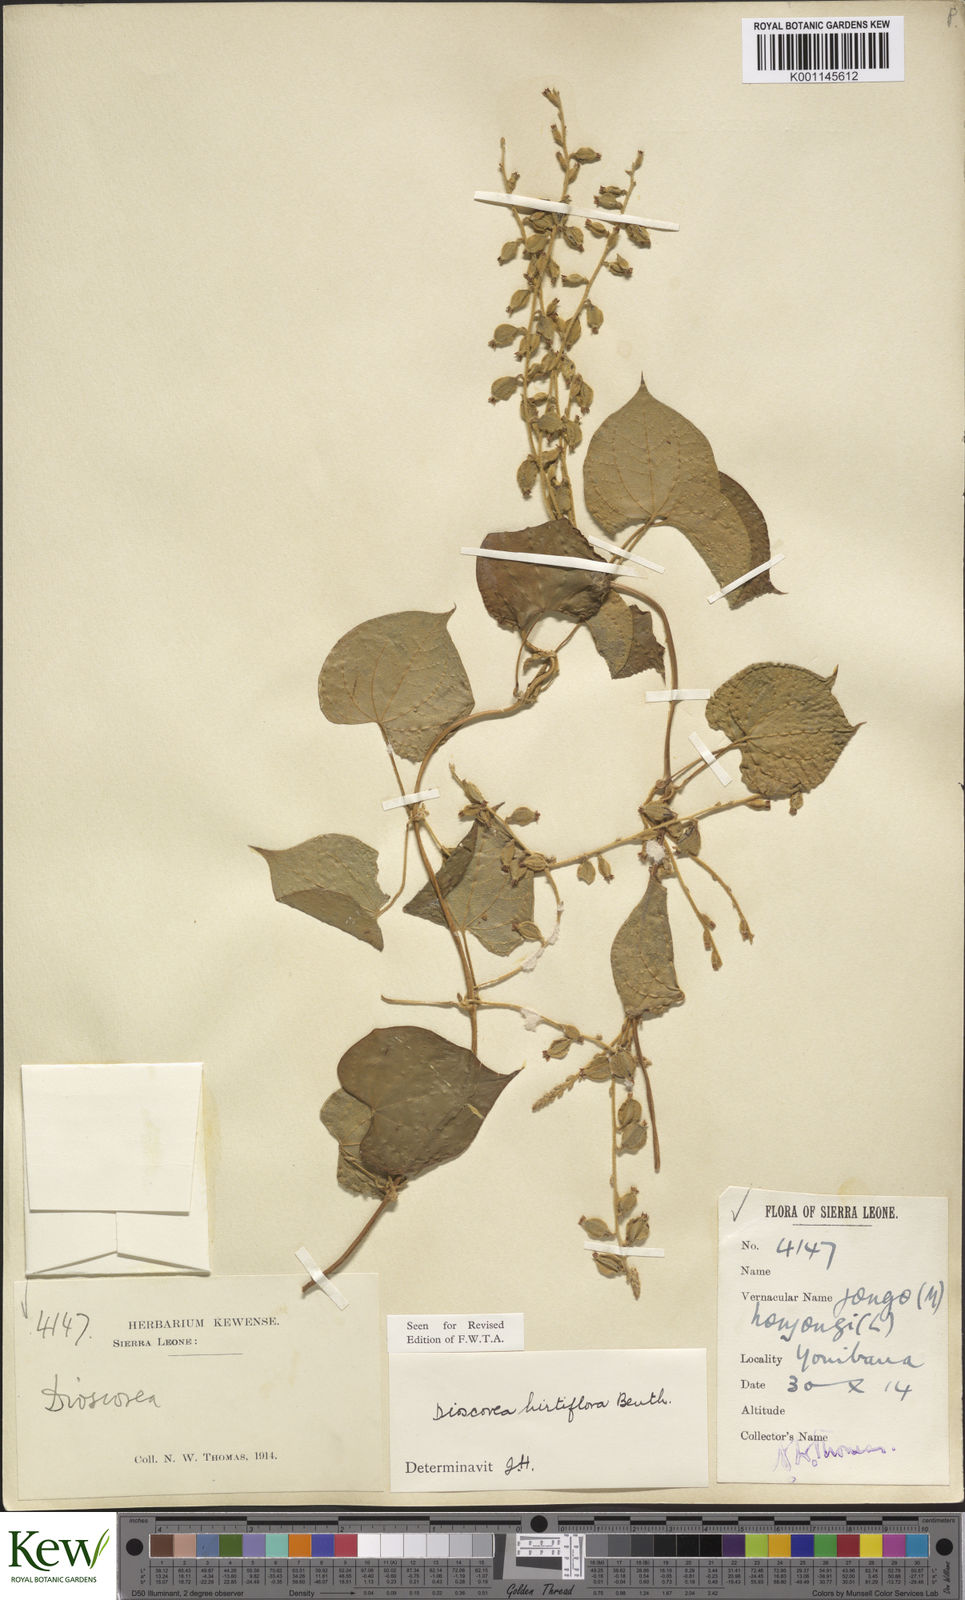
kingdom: Plantae
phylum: Tracheophyta
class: Liliopsida
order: Dioscoreales
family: Dioscoreaceae
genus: Dioscorea
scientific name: Dioscorea hirtiflora
